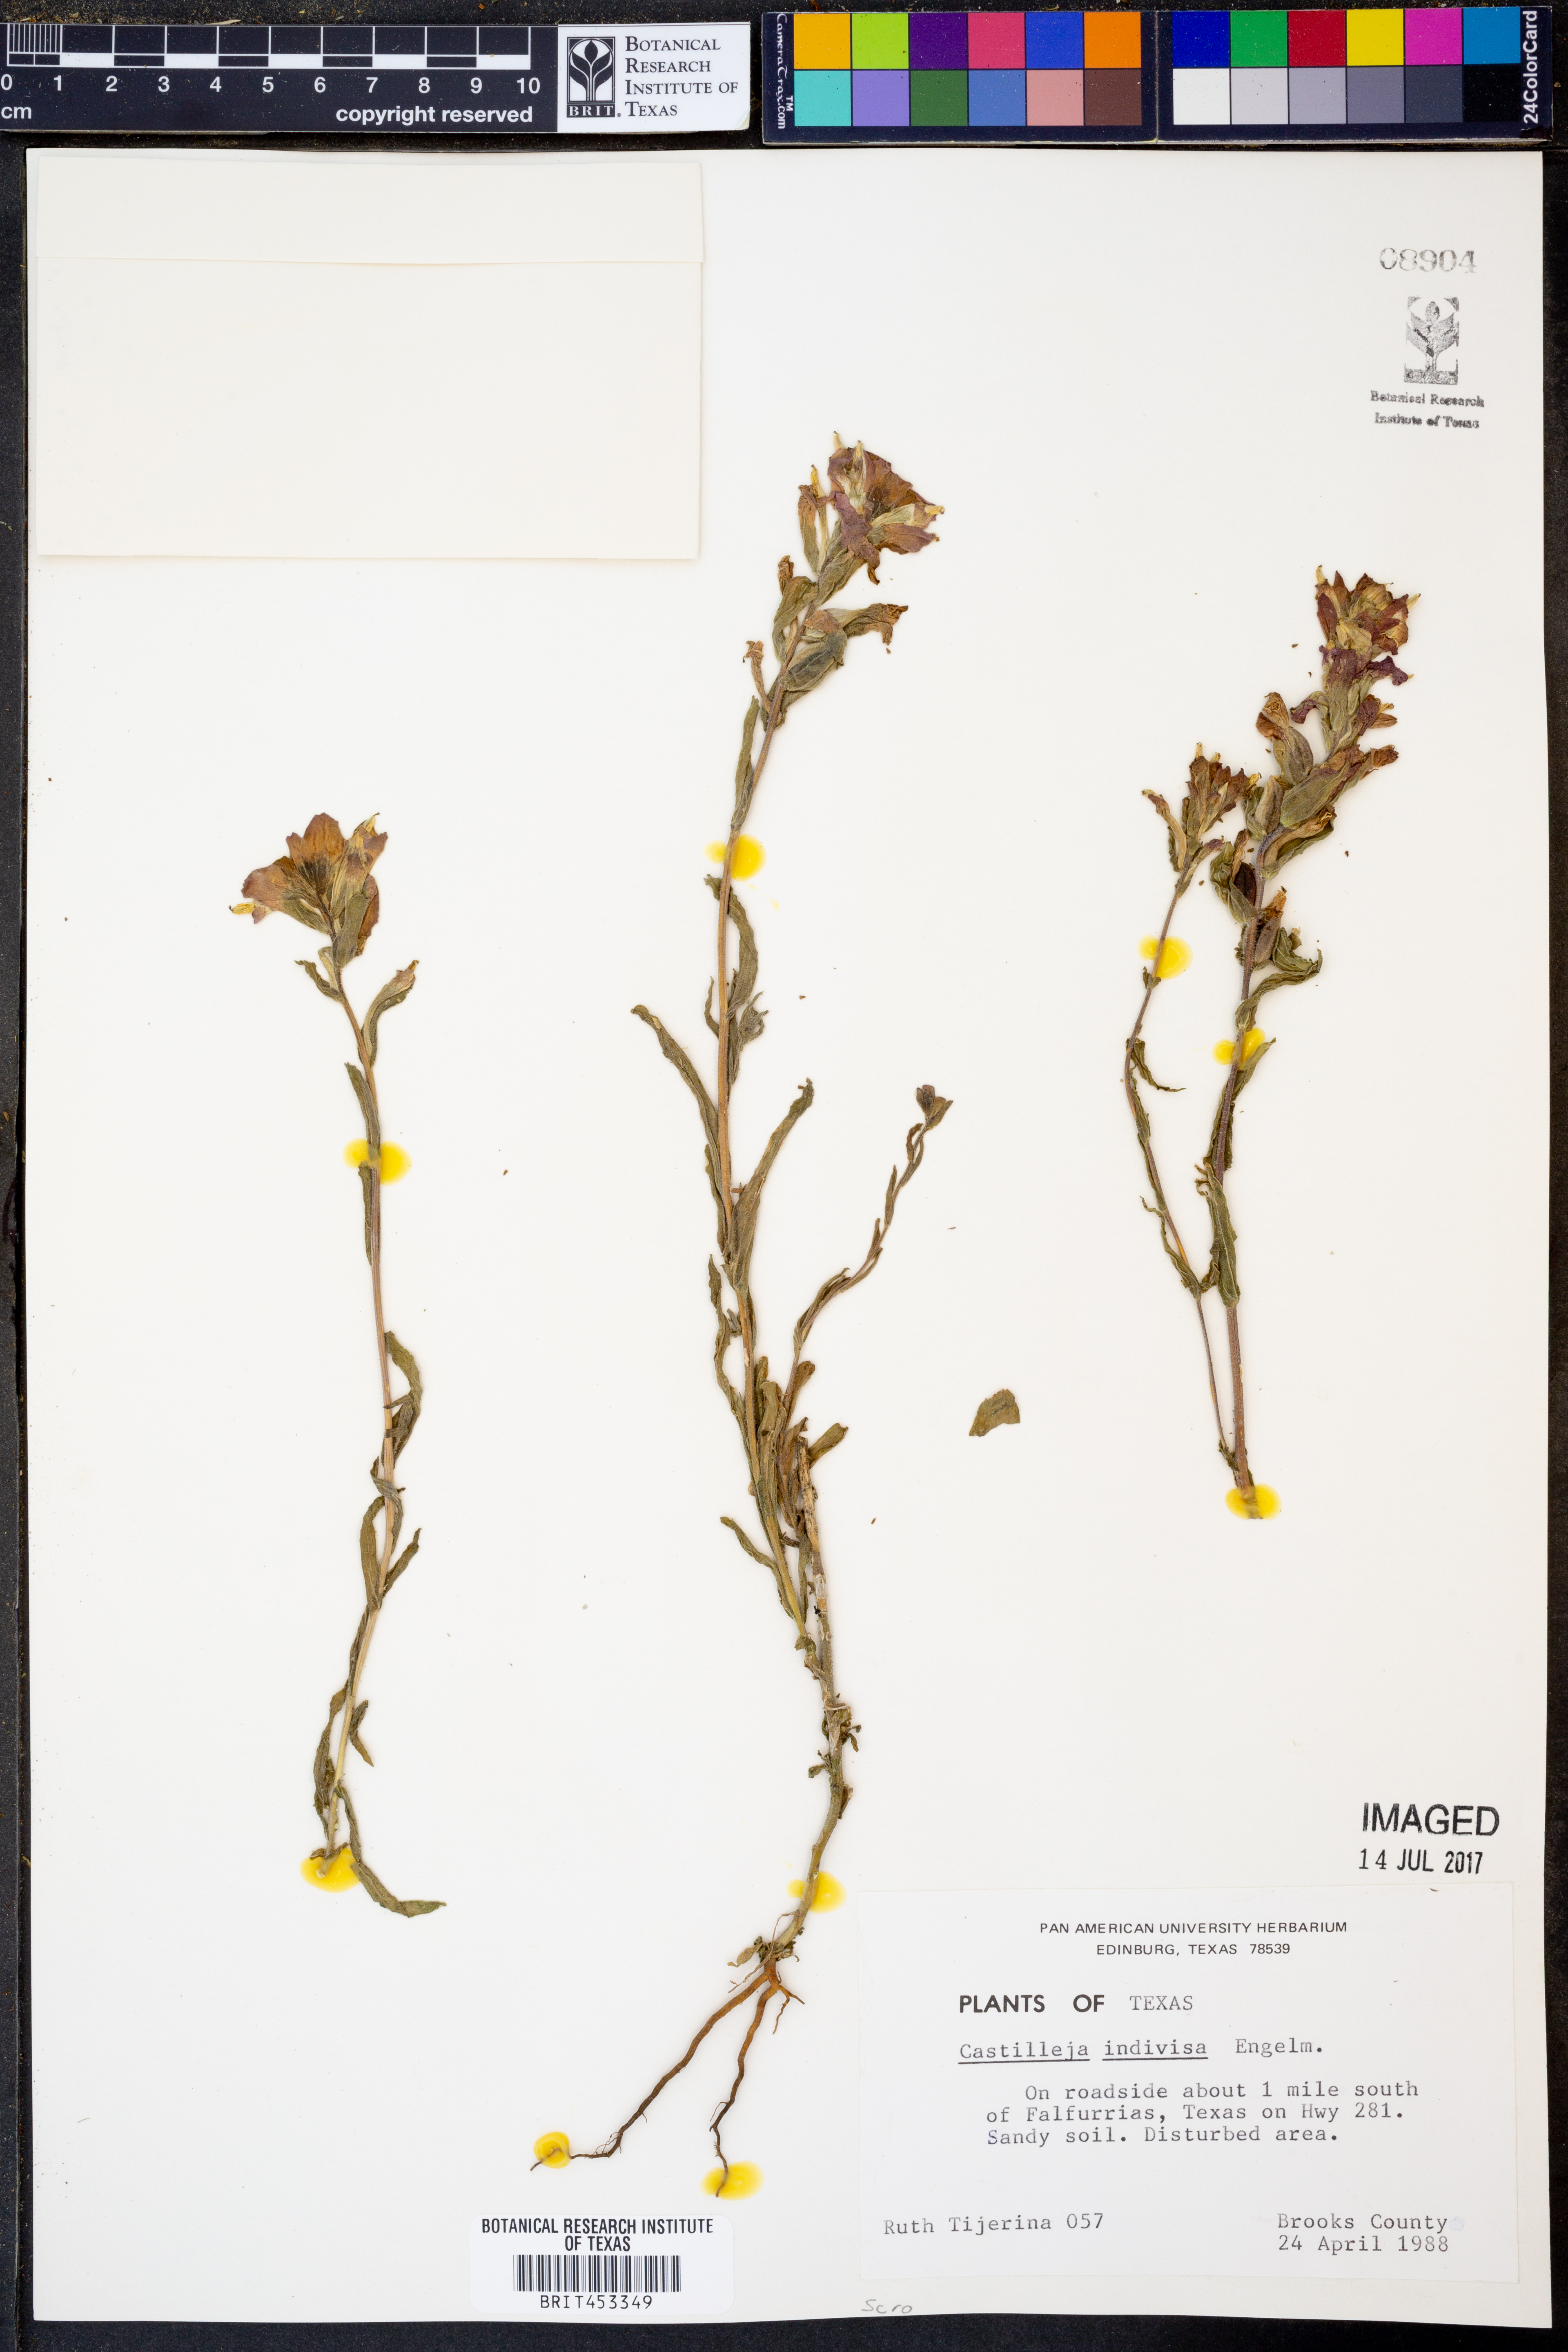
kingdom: Plantae
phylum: Tracheophyta
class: Magnoliopsida
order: Lamiales
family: Orobanchaceae
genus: Castilleja
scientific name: Castilleja indivisa
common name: Texas paintbrush
